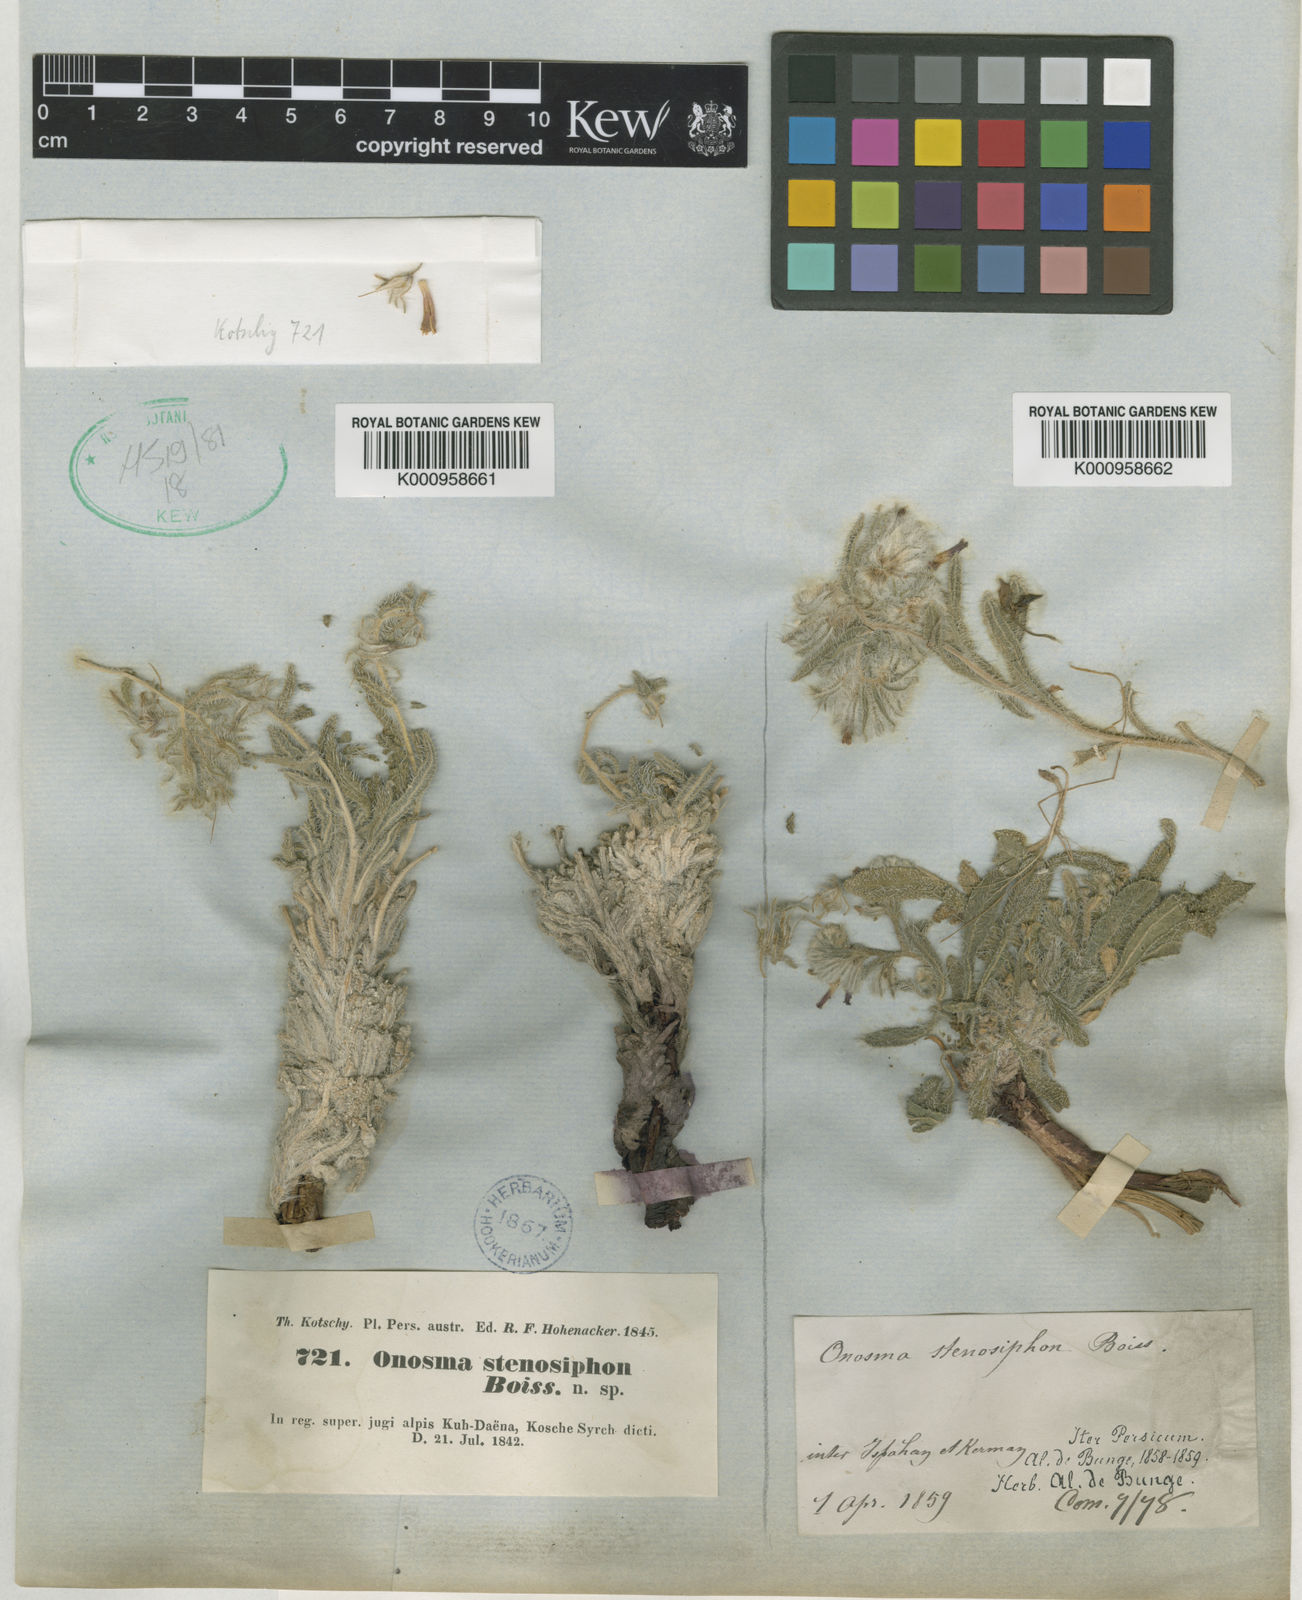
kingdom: Plantae
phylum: Tracheophyta
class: Magnoliopsida
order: Boraginales
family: Boraginaceae
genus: Maharanga
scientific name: Maharanga stenosiphon
